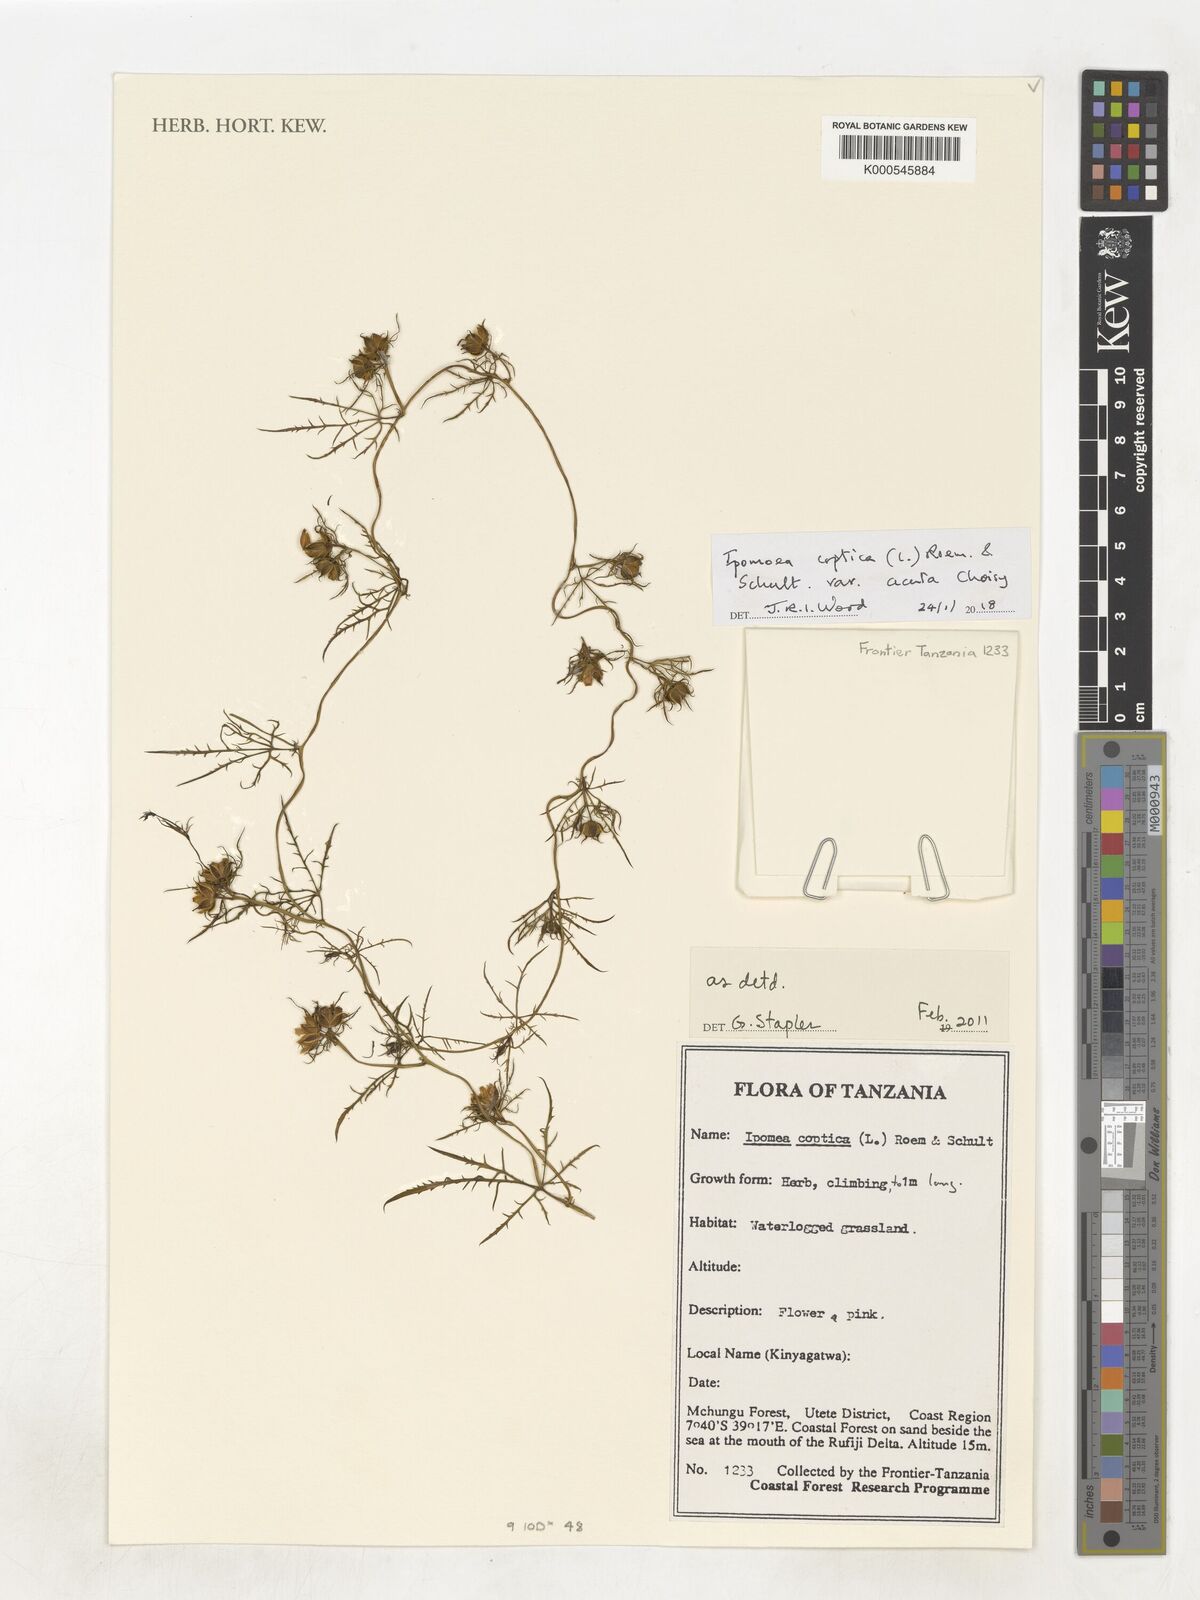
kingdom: Plantae
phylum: Tracheophyta
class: Magnoliopsida
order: Solanales
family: Convolvulaceae
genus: Ipomoea
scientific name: Ipomoea
